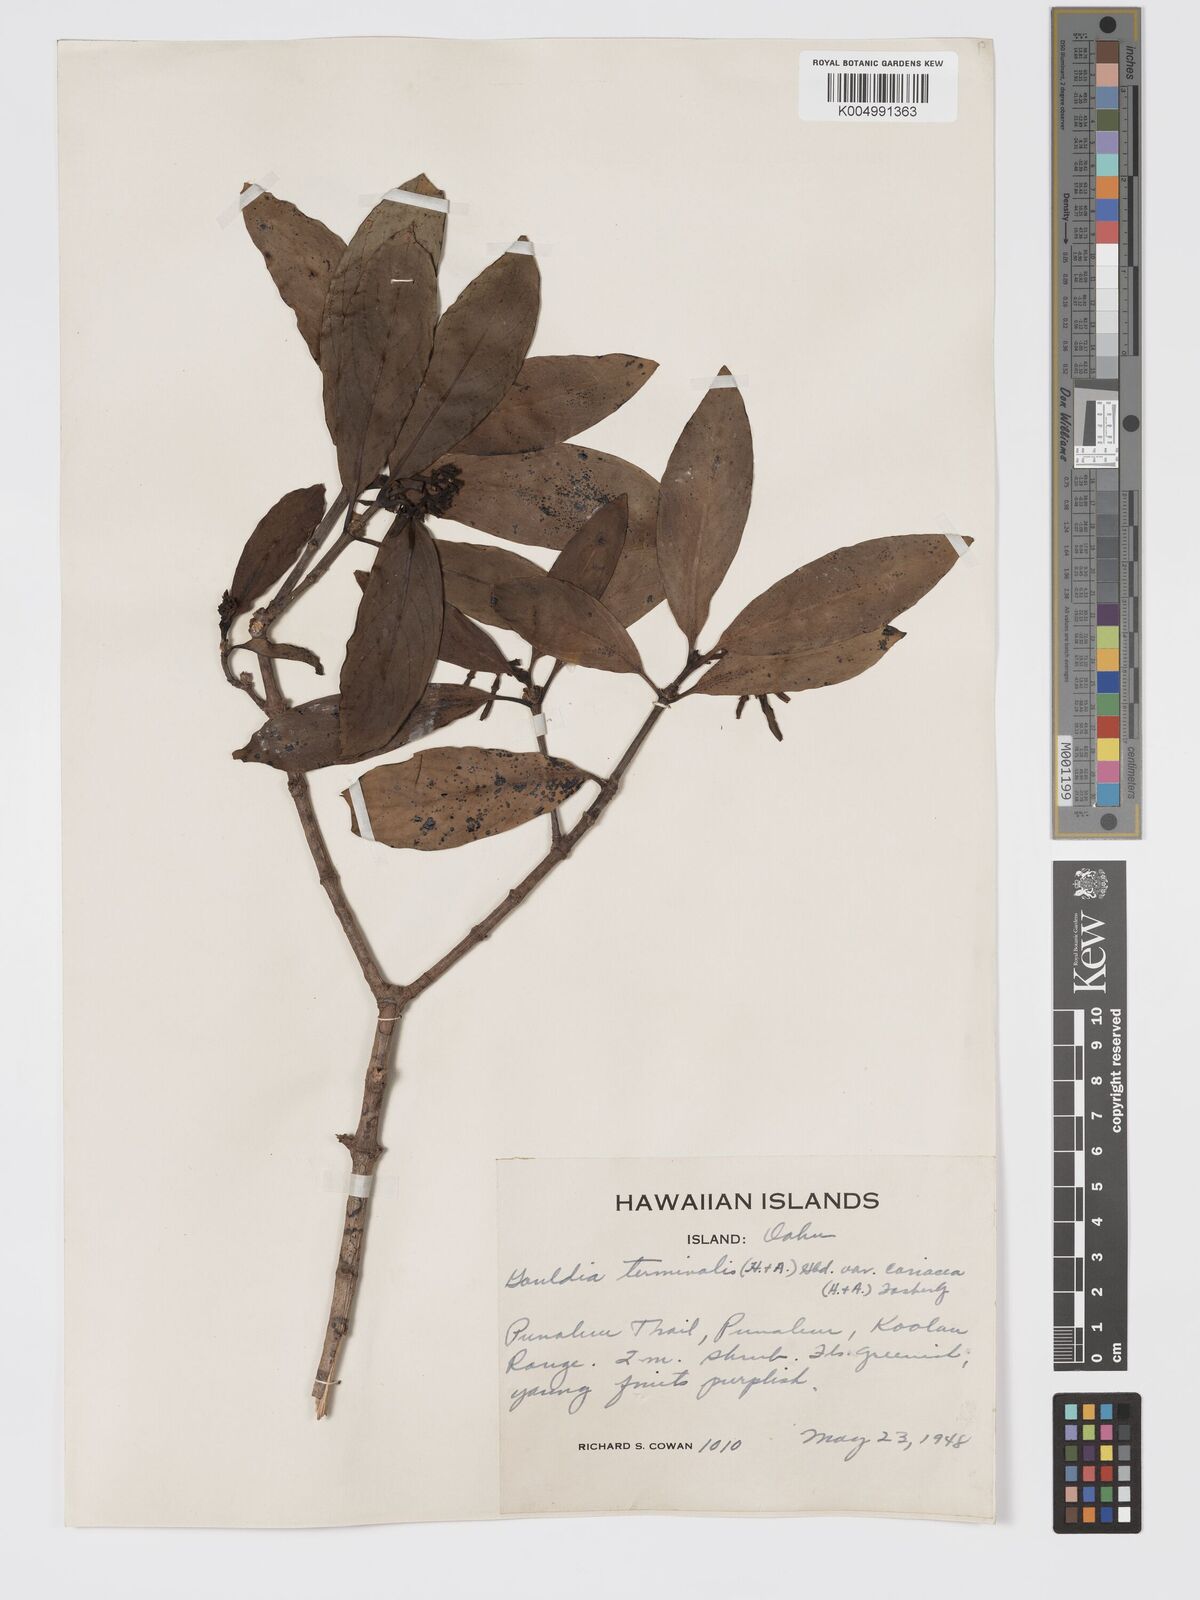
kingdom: Plantae
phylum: Tracheophyta
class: Magnoliopsida
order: Gentianales
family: Rubiaceae
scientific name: Rubiaceae
